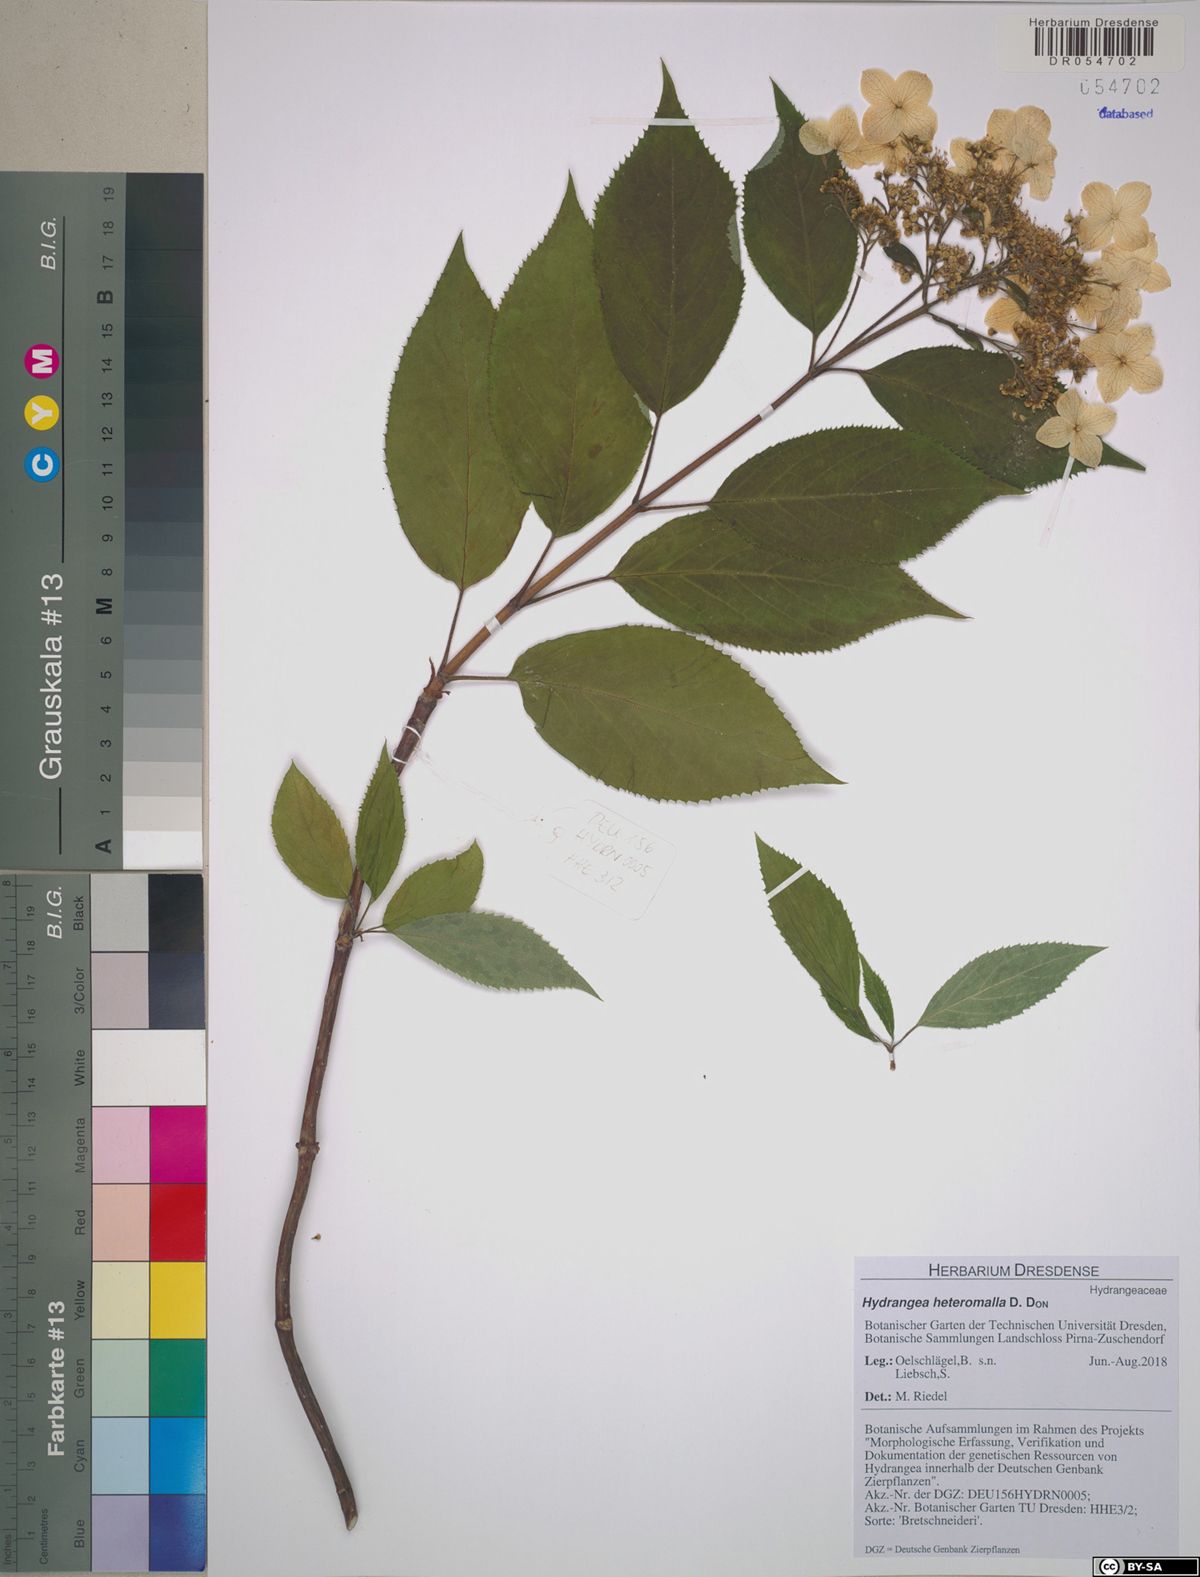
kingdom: Plantae
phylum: Tracheophyta
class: Magnoliopsida
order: Cornales
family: Hydrangeaceae
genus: Hydrangea
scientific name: Hydrangea heteromalla
